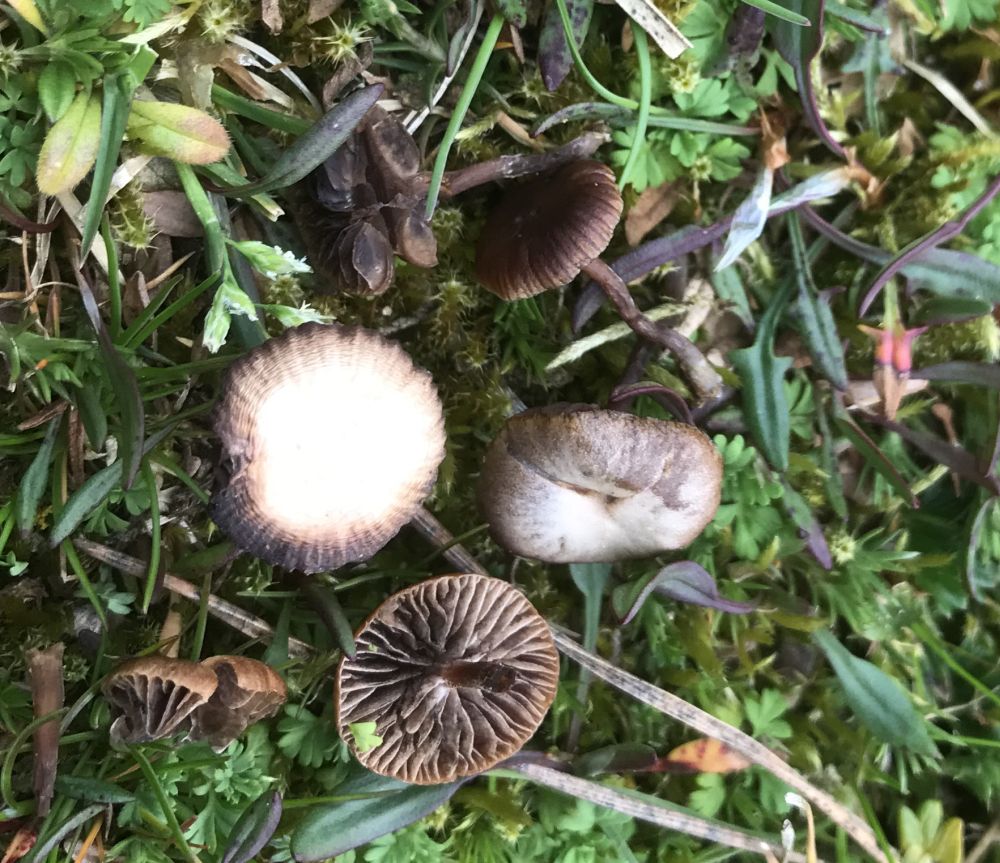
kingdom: Fungi
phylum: Basidiomycota
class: Agaricomycetes
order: Agaricales
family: Strophariaceae
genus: Deconica
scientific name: Deconica montana
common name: rødbrun stråhat
